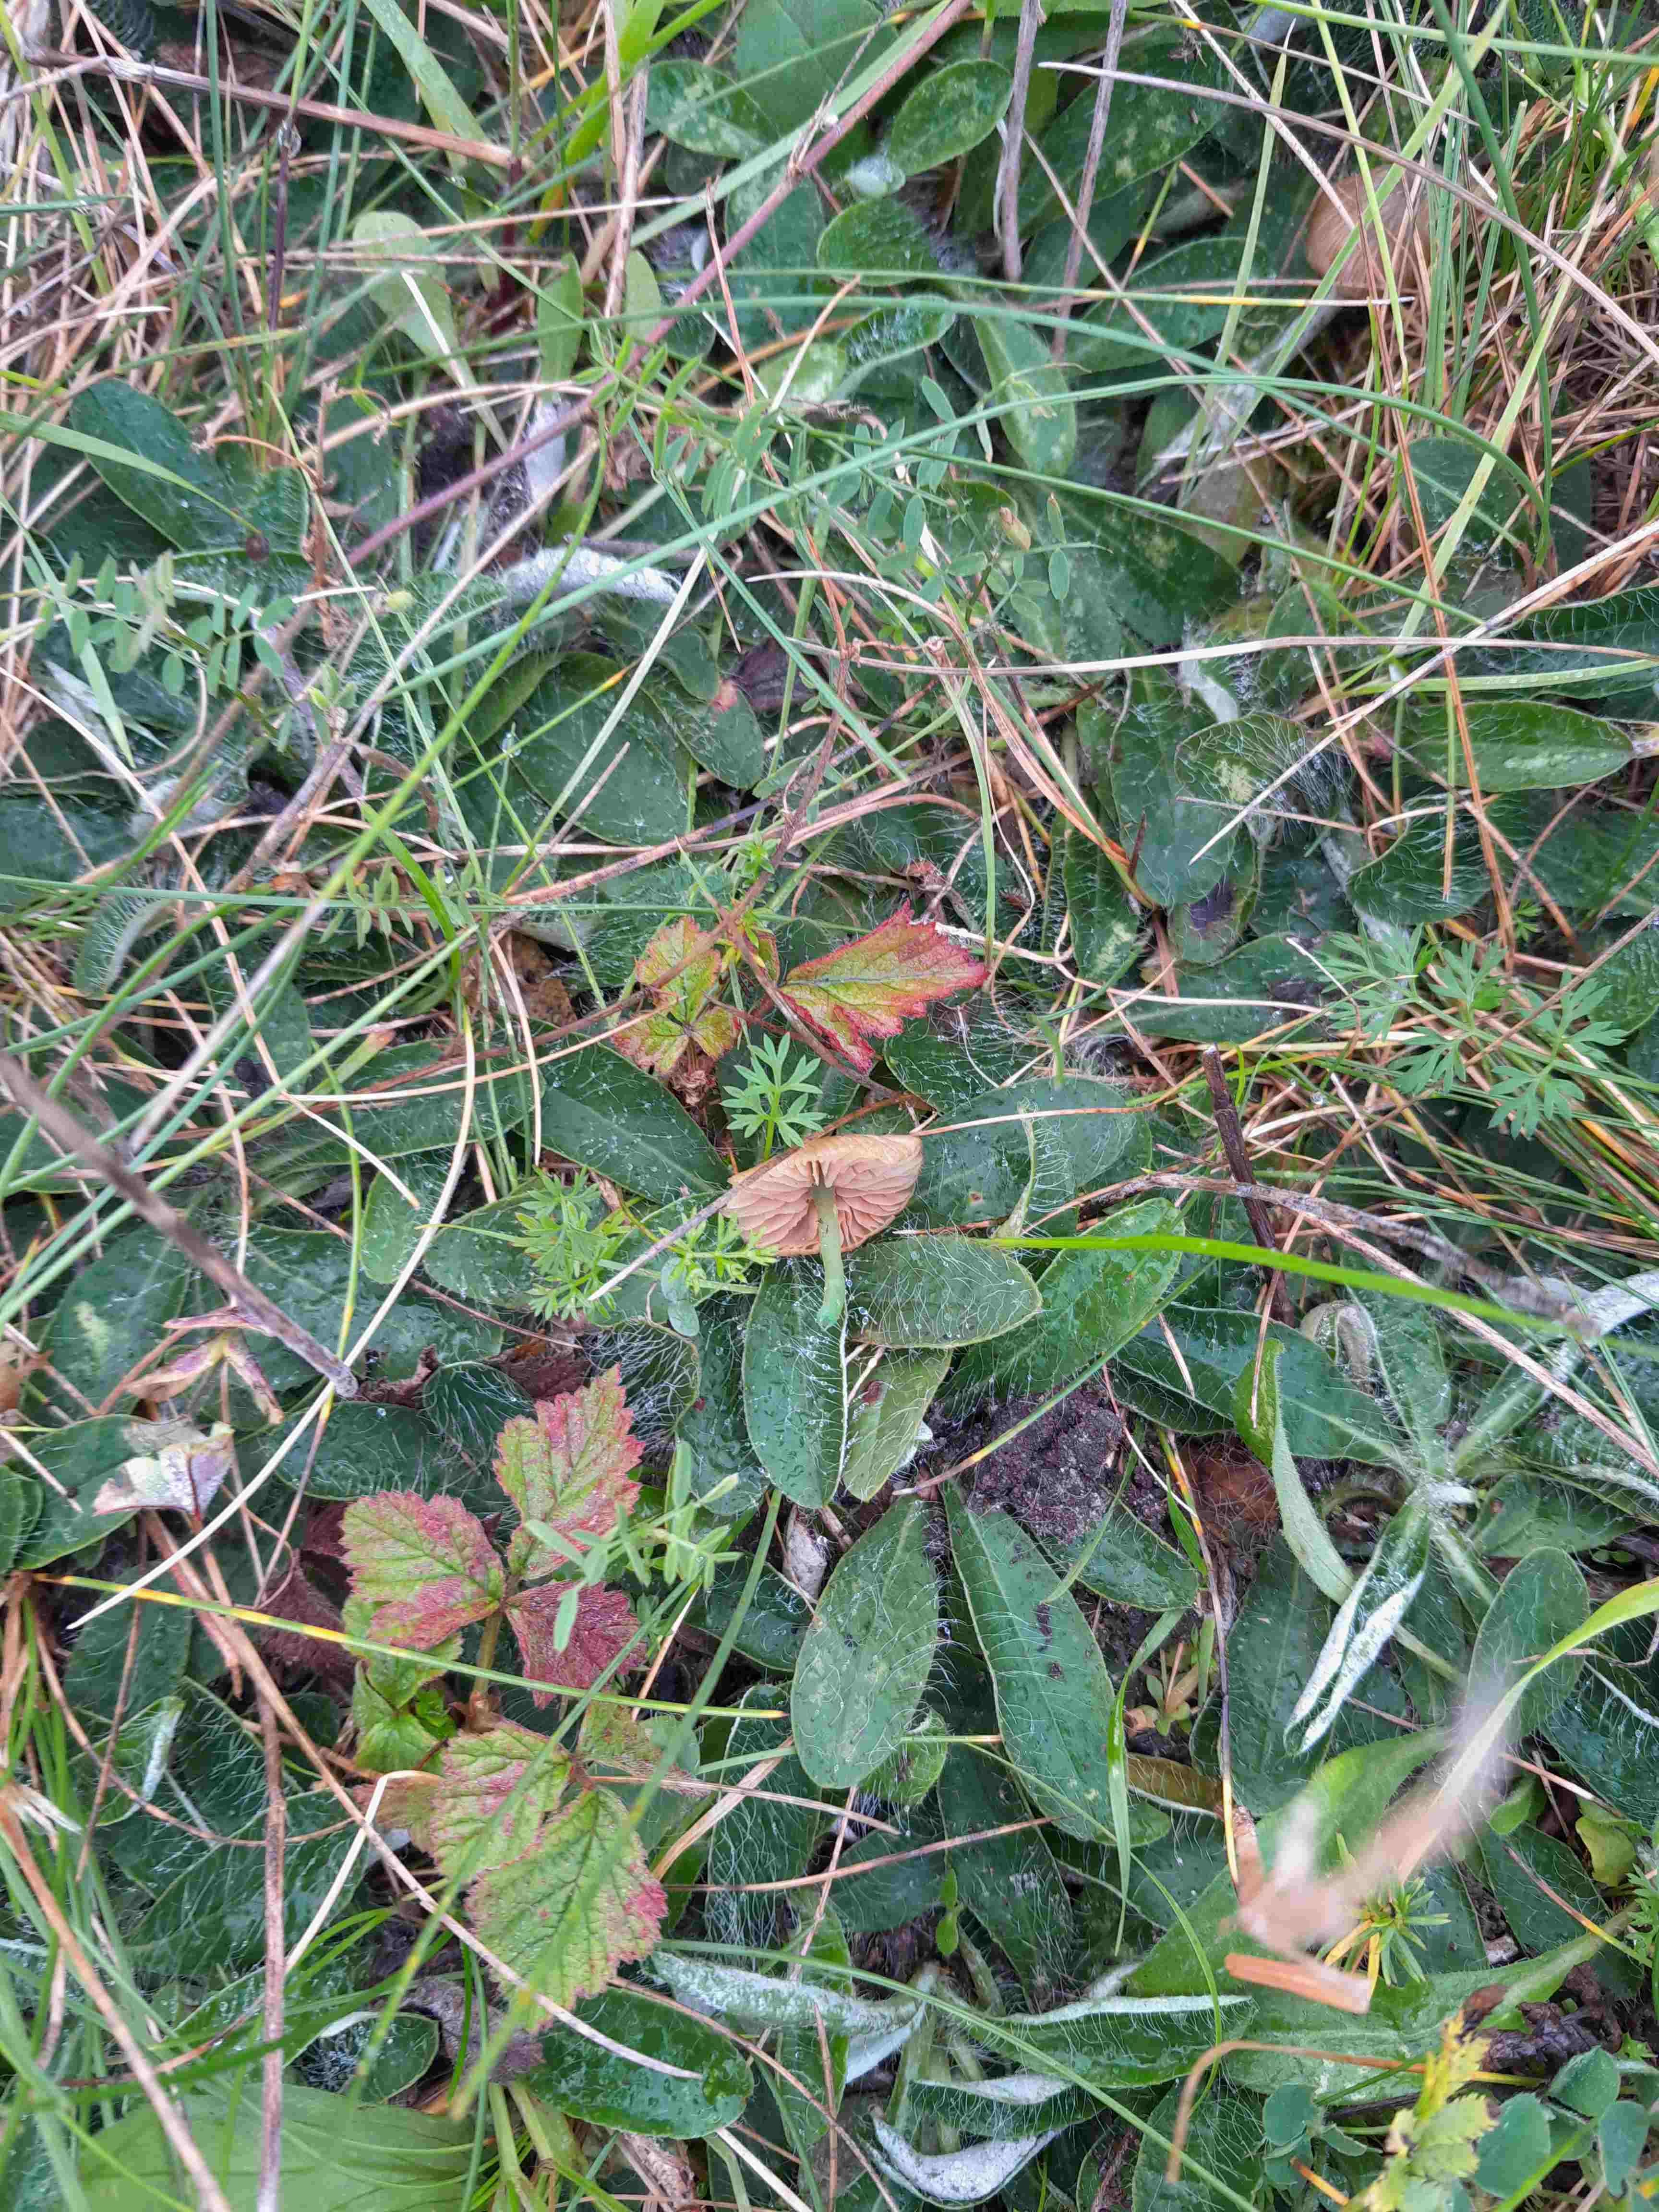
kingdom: Fungi
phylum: Basidiomycota
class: Agaricomycetes
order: Agaricales
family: Entolomataceae
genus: Entoloma
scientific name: Entoloma incanum
